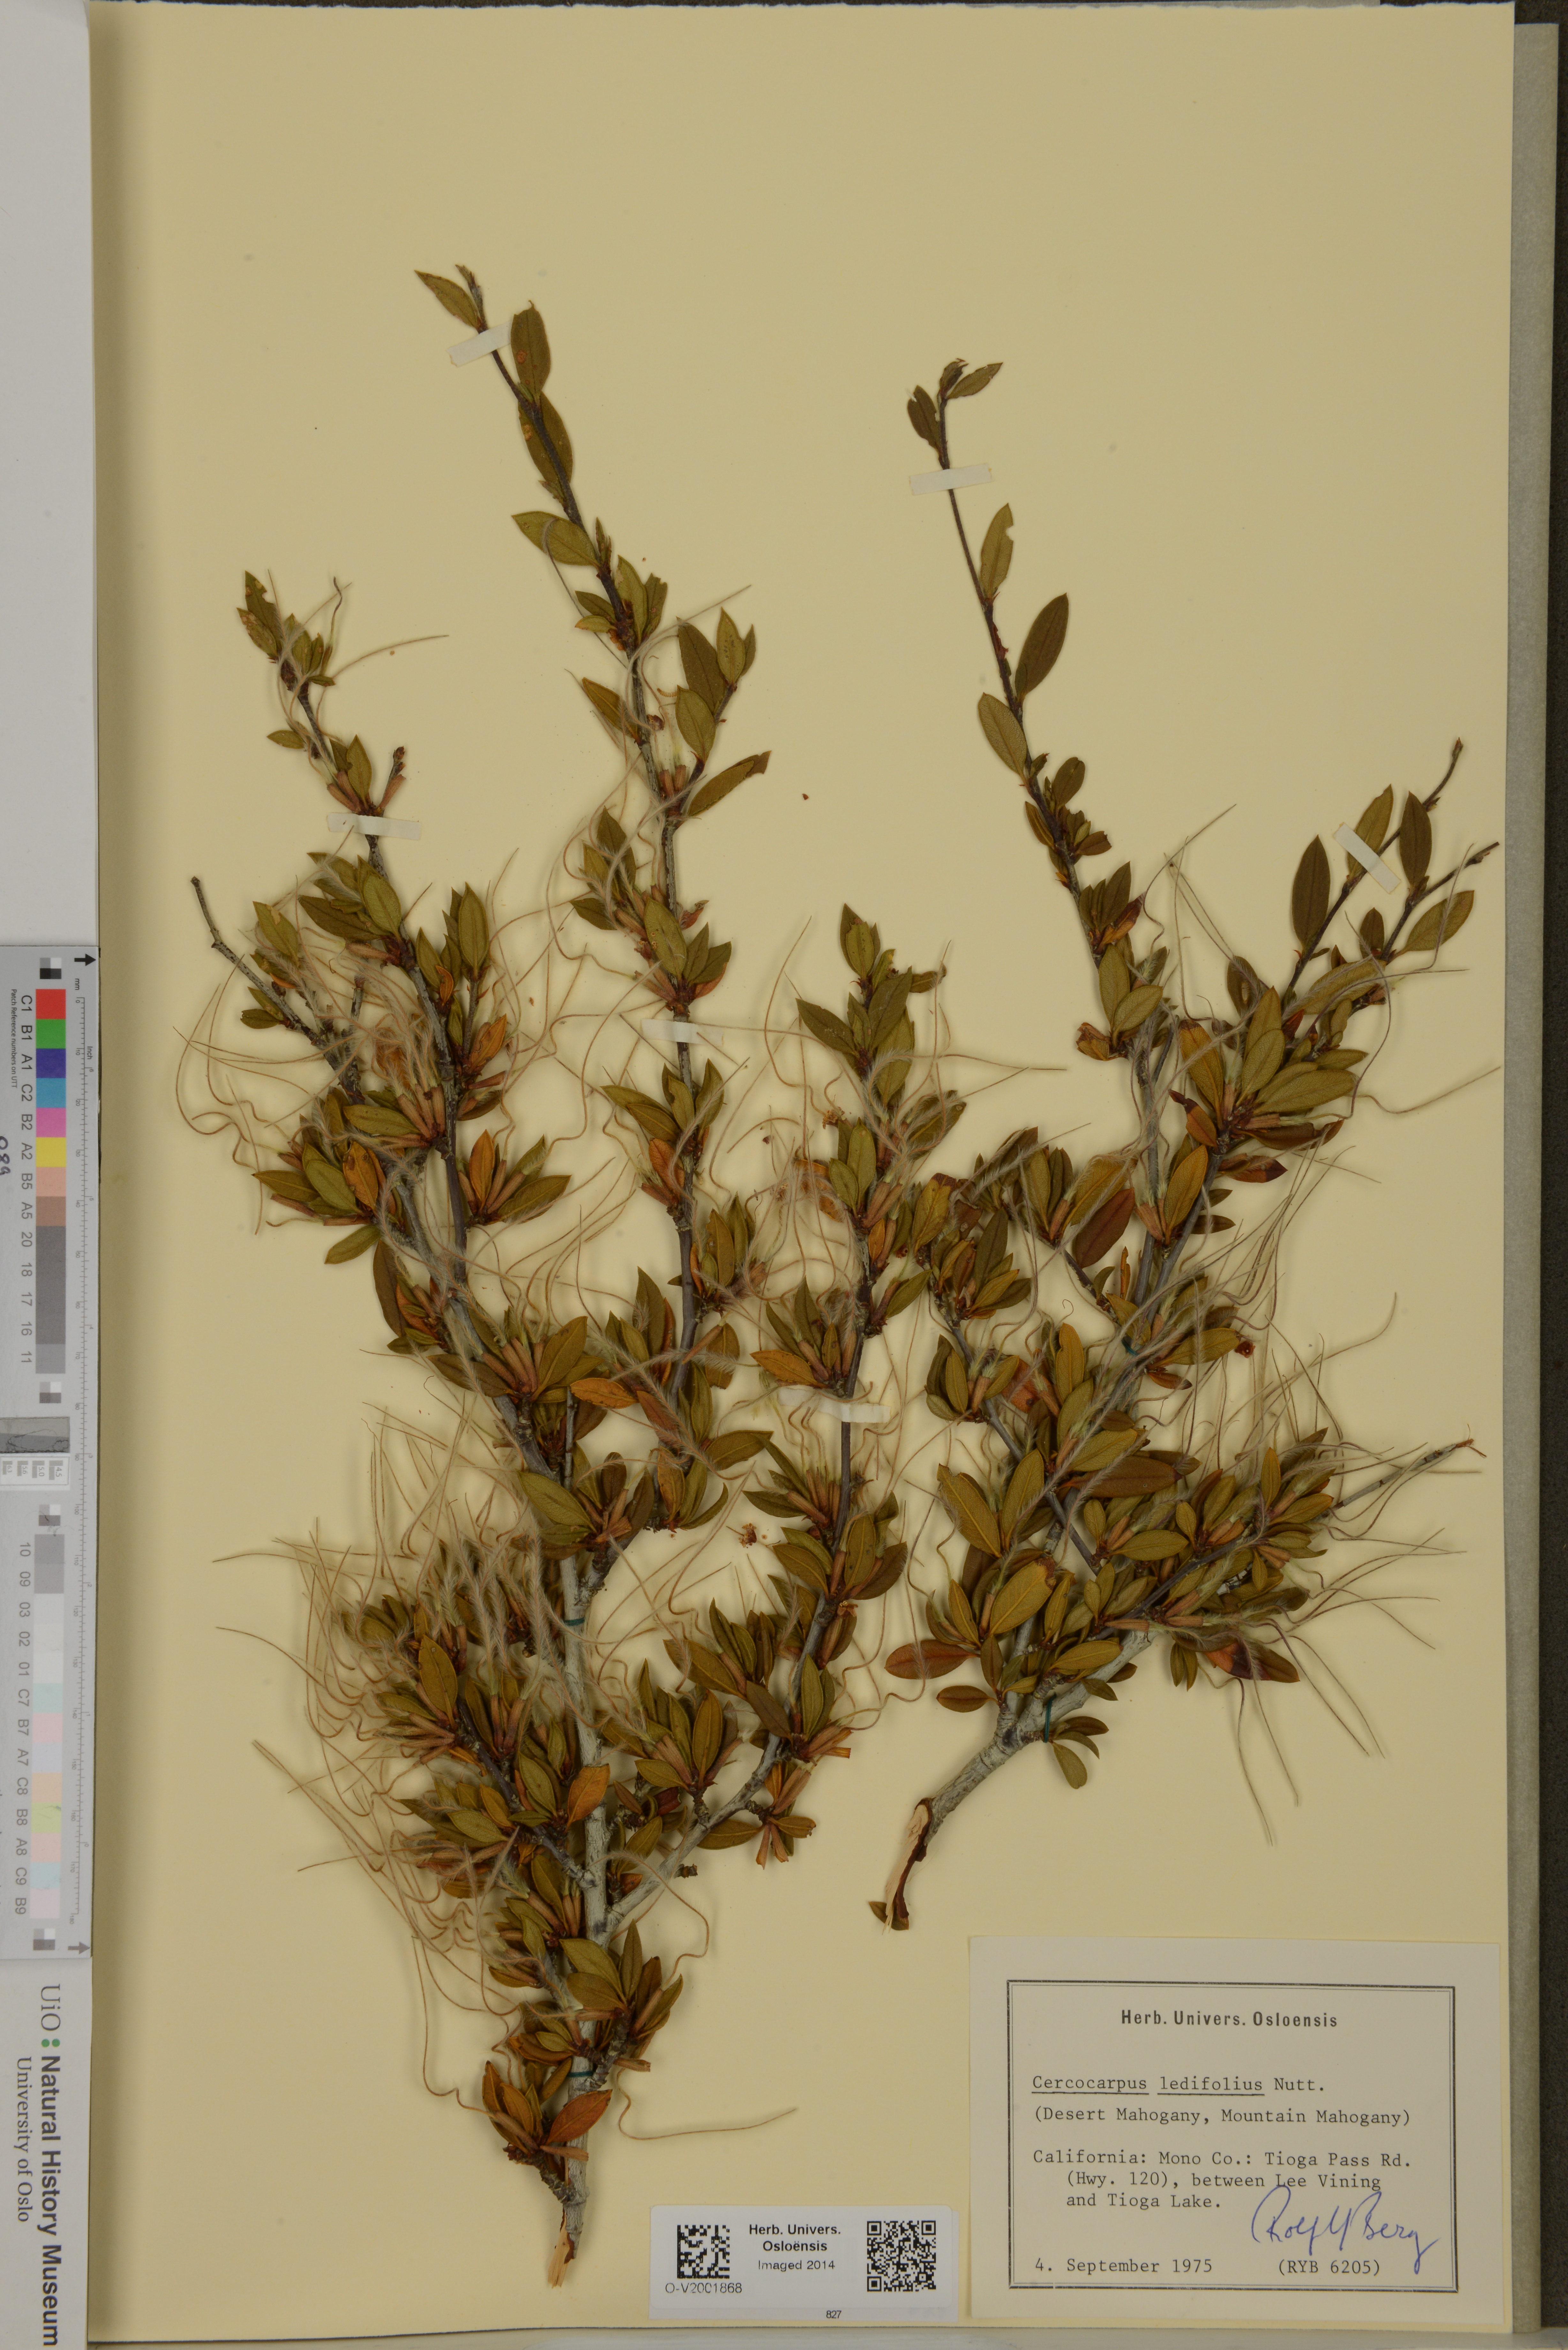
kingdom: Plantae
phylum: Tracheophyta
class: Magnoliopsida
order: Rosales
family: Rosaceae
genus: Cercocarpus
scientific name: Cercocarpus ledifolius
